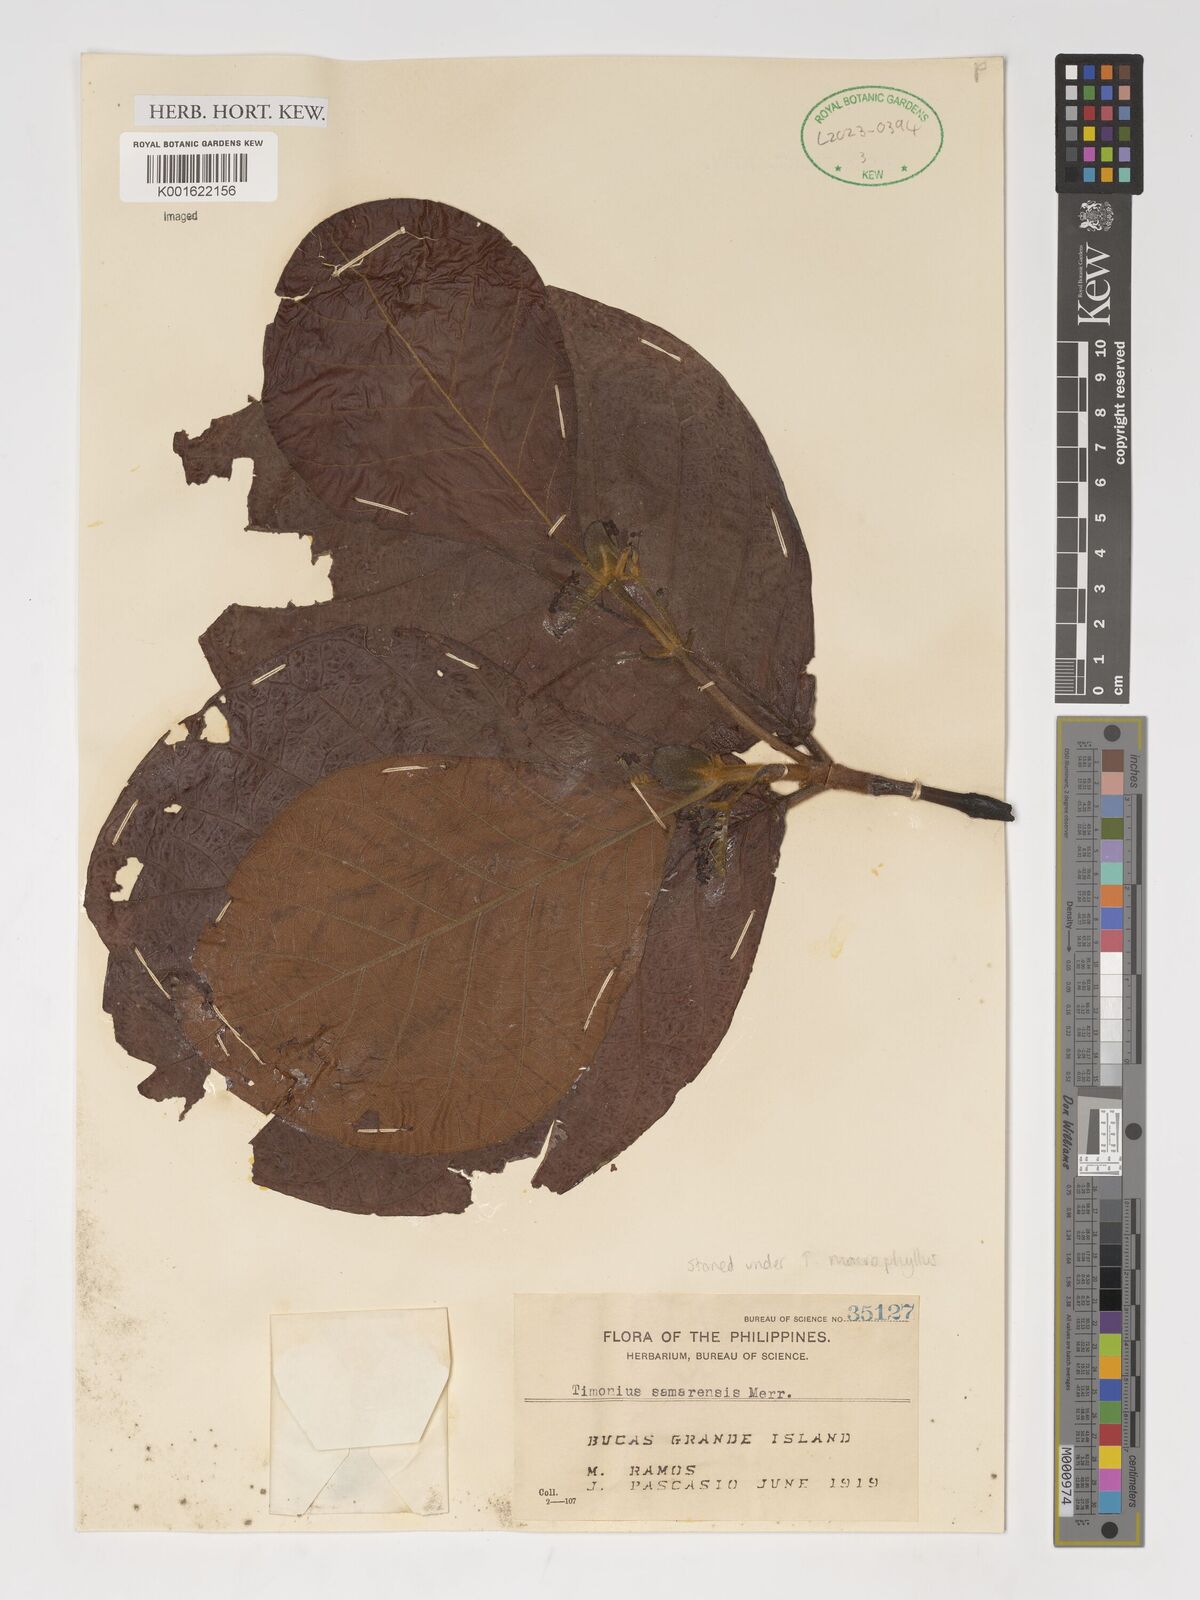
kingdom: Plantae
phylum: Tracheophyta
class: Magnoliopsida
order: Gentianales
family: Rubiaceae
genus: Timonius
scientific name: Timonius samarensis
